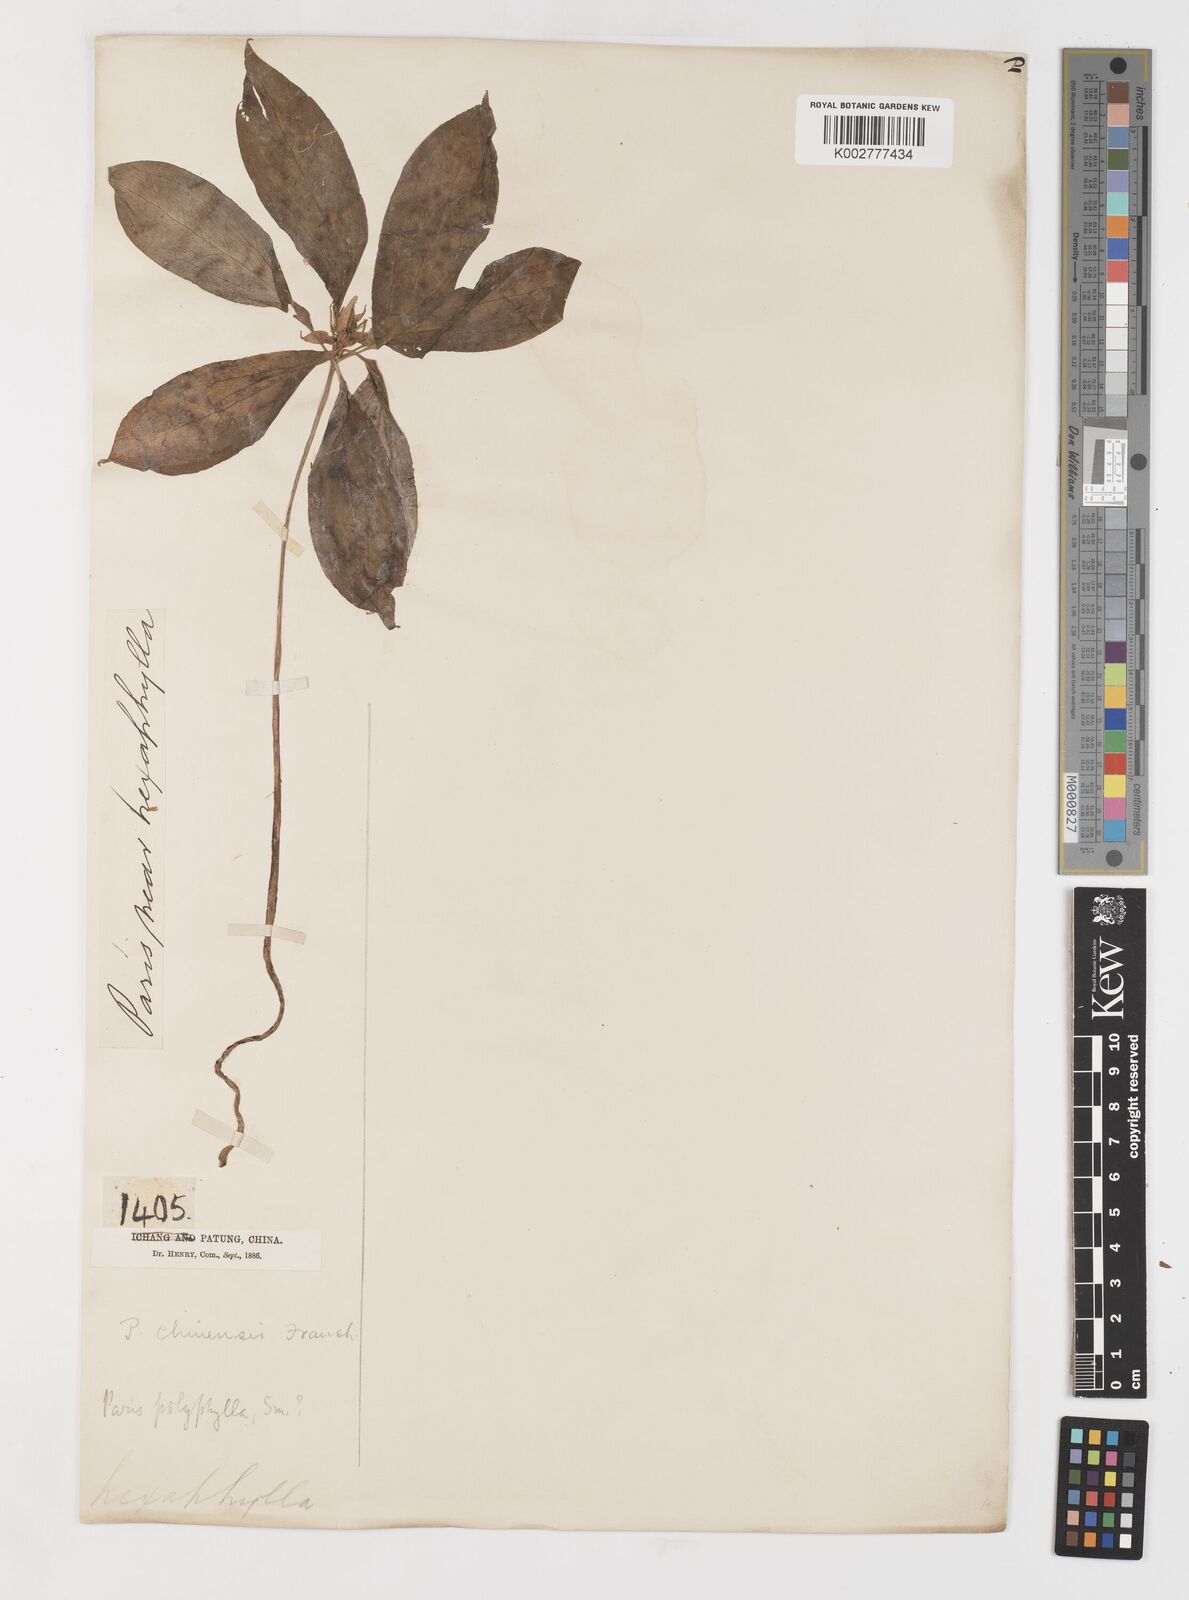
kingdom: Plantae
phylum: Tracheophyta
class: Liliopsida
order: Liliales
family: Melanthiaceae
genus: Paris
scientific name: Paris chinensis
